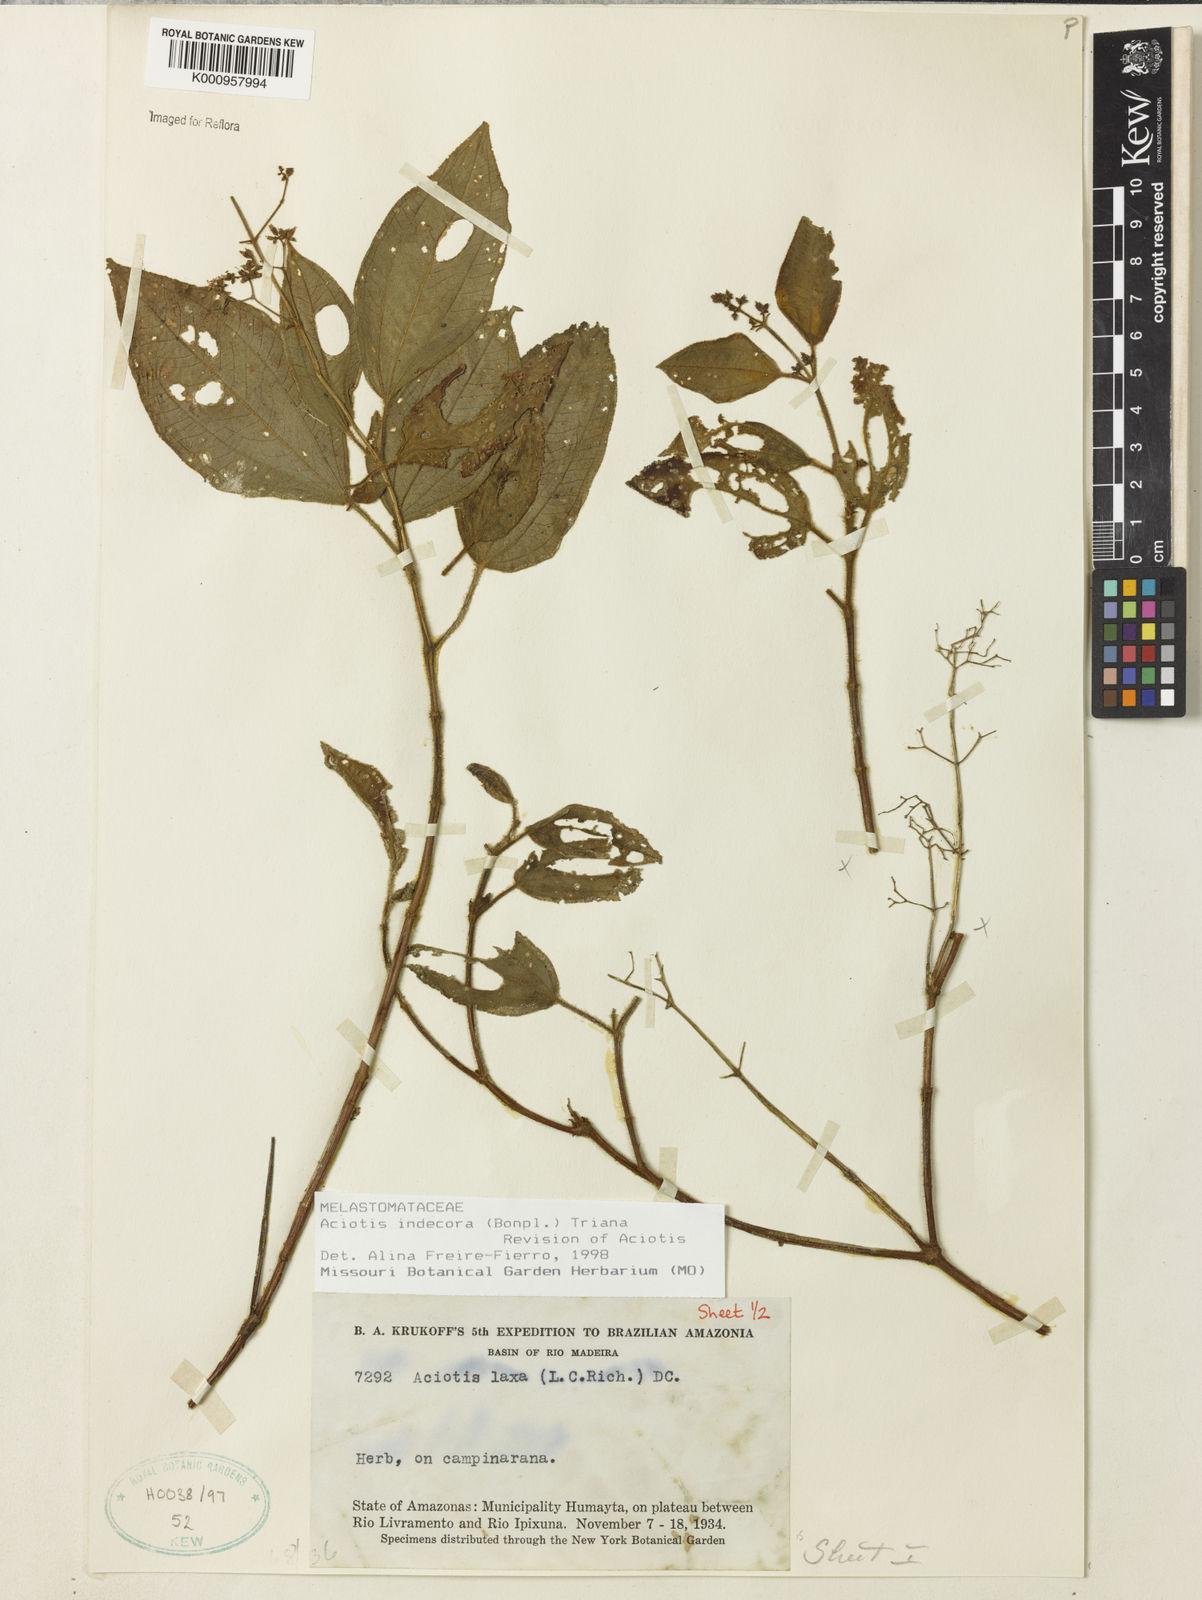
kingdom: Plantae
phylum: Tracheophyta
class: Magnoliopsida
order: Myrtales
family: Melastomataceae
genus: Aciotis
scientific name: Aciotis indecora
